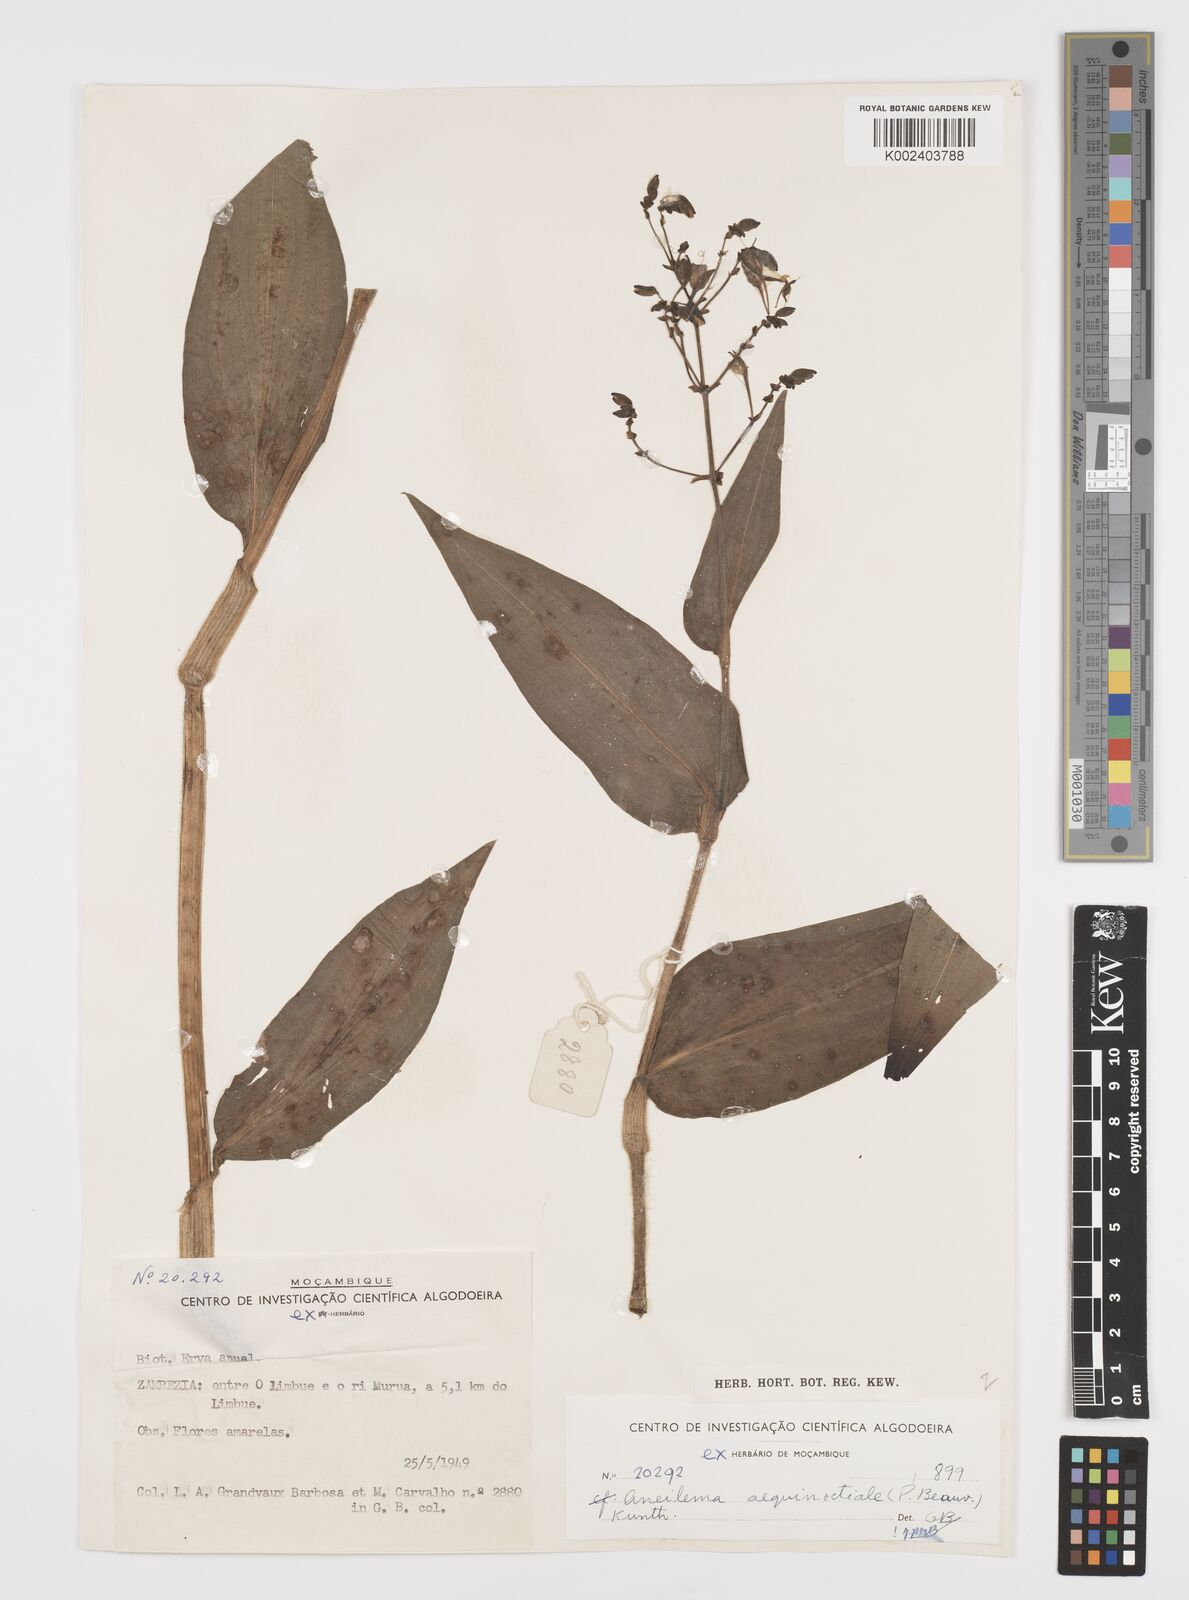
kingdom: Plantae
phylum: Tracheophyta
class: Liliopsida
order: Commelinales
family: Commelinaceae
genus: Aneilema
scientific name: Aneilema aequinoctiale
